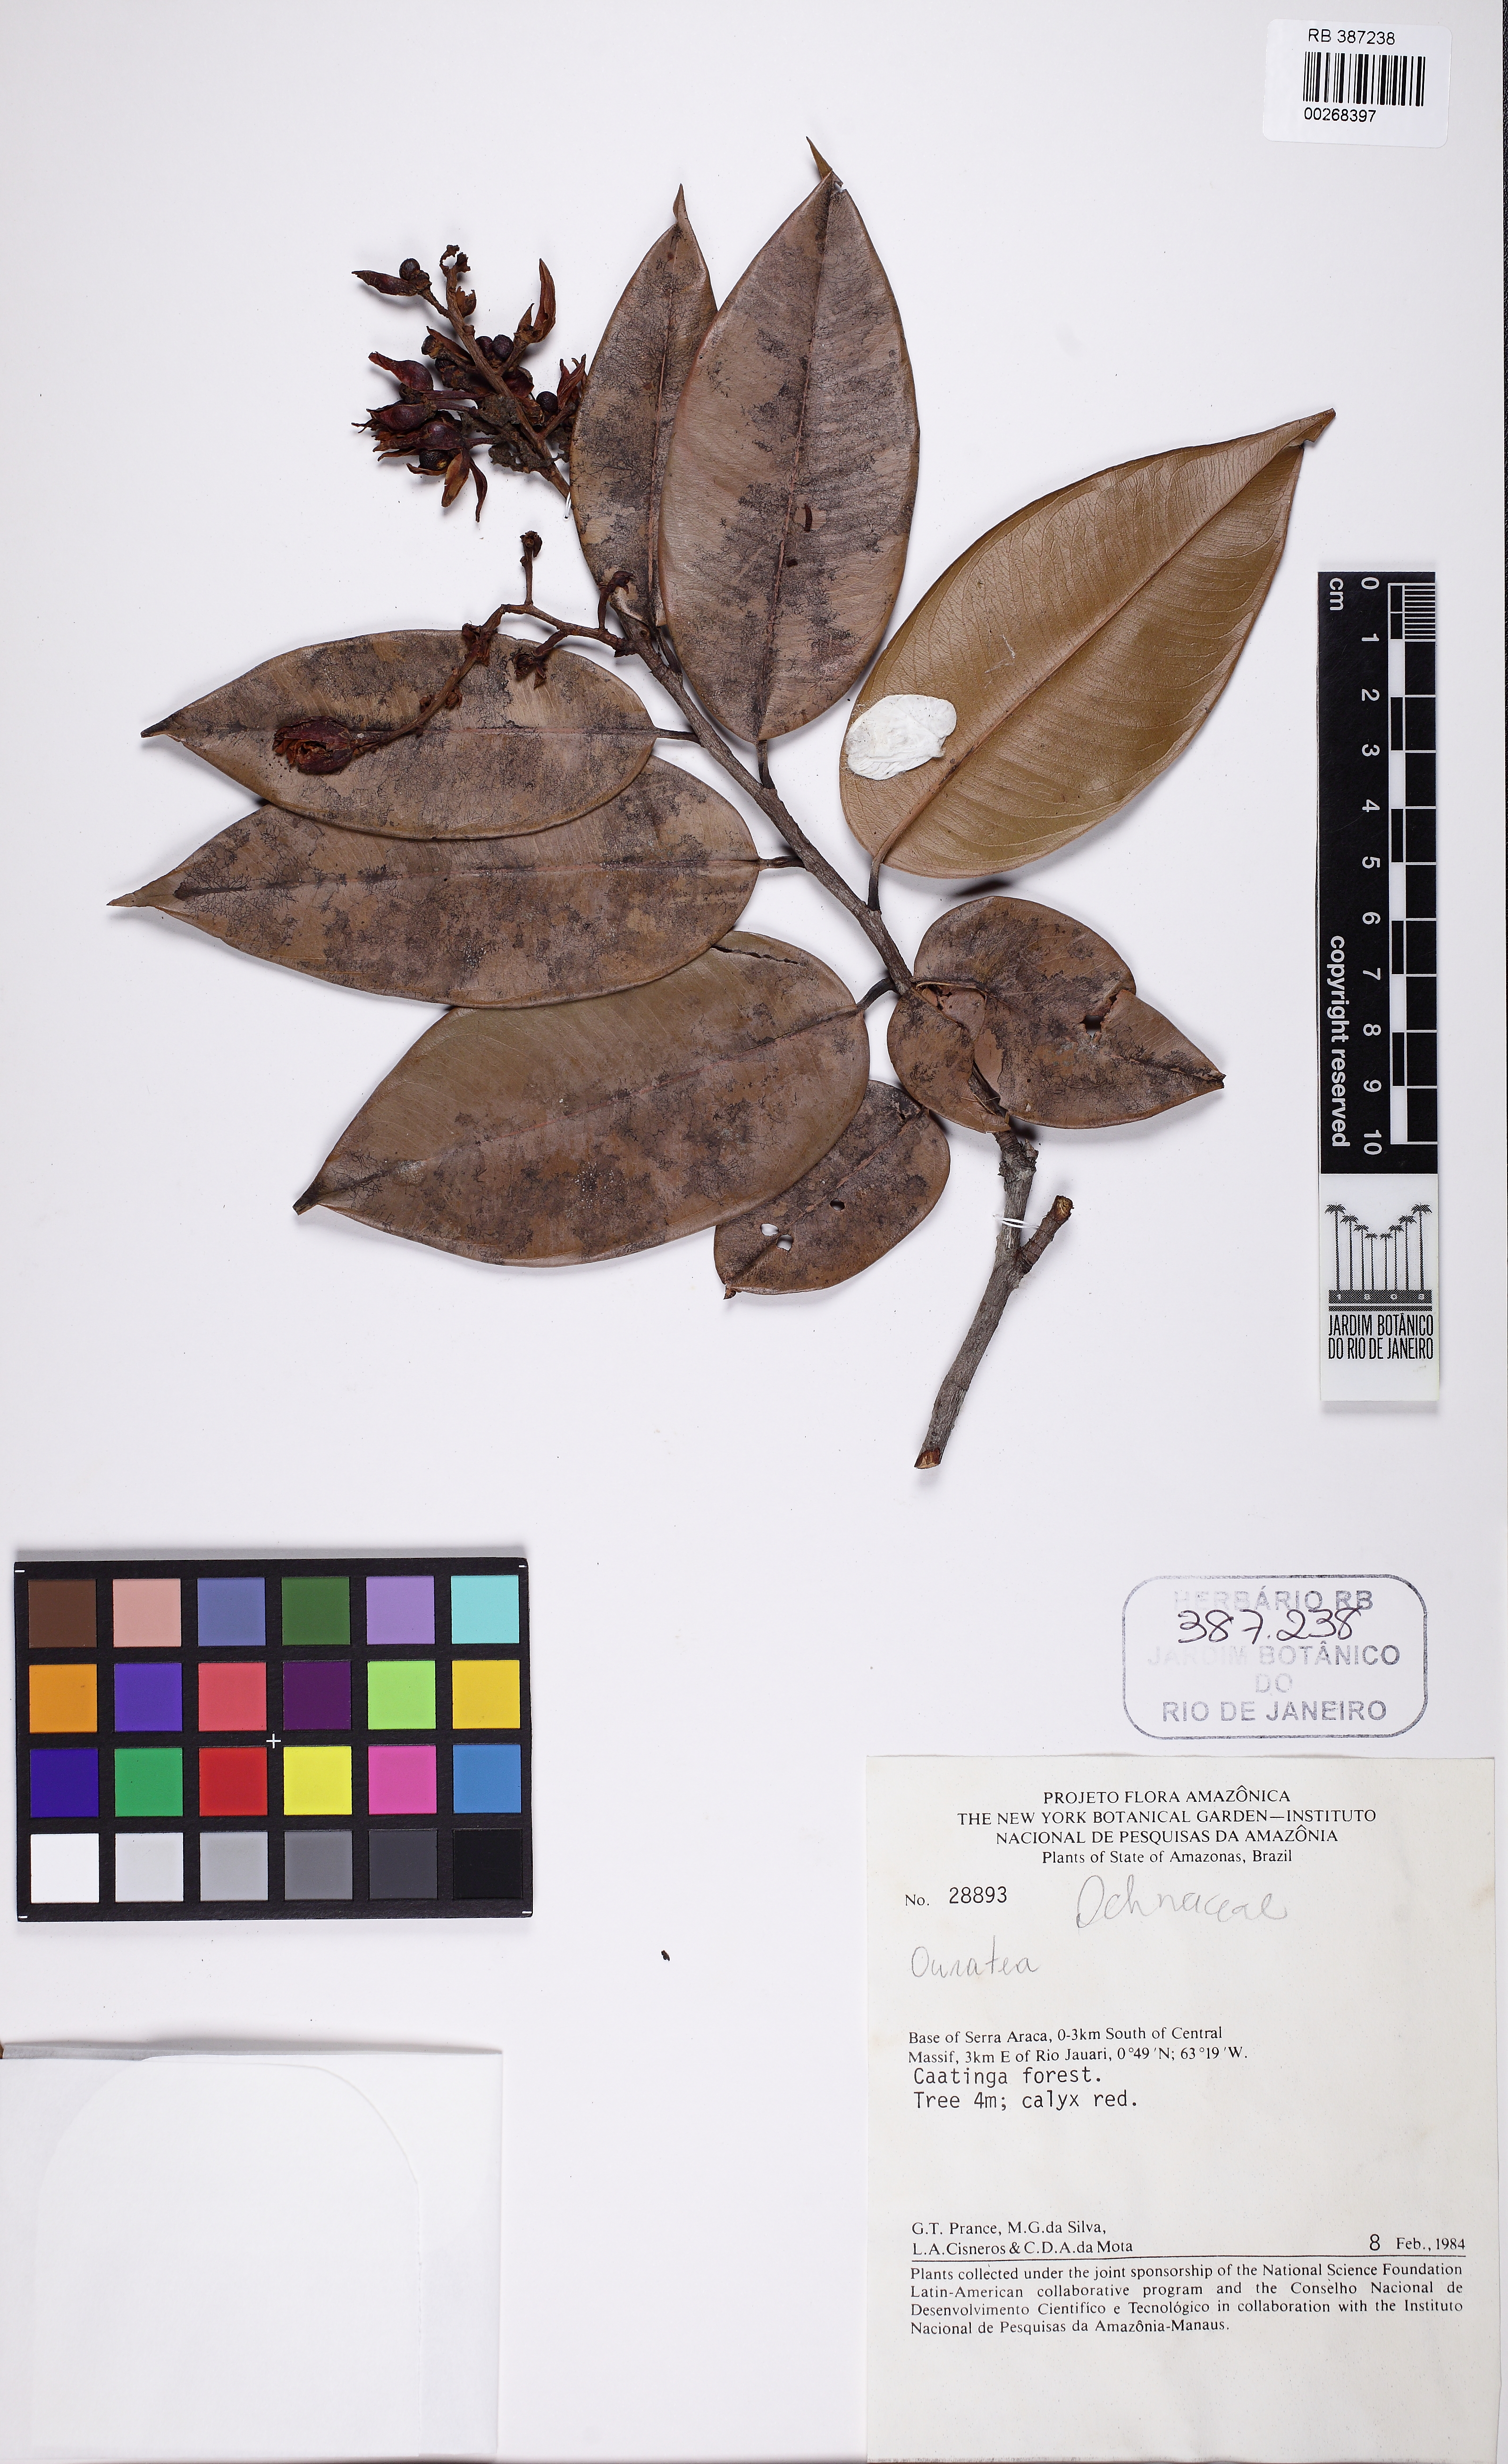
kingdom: Plantae
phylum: Tracheophyta
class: Magnoliopsida
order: Malpighiales
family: Ochnaceae
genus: Ouratea
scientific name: Ouratea
